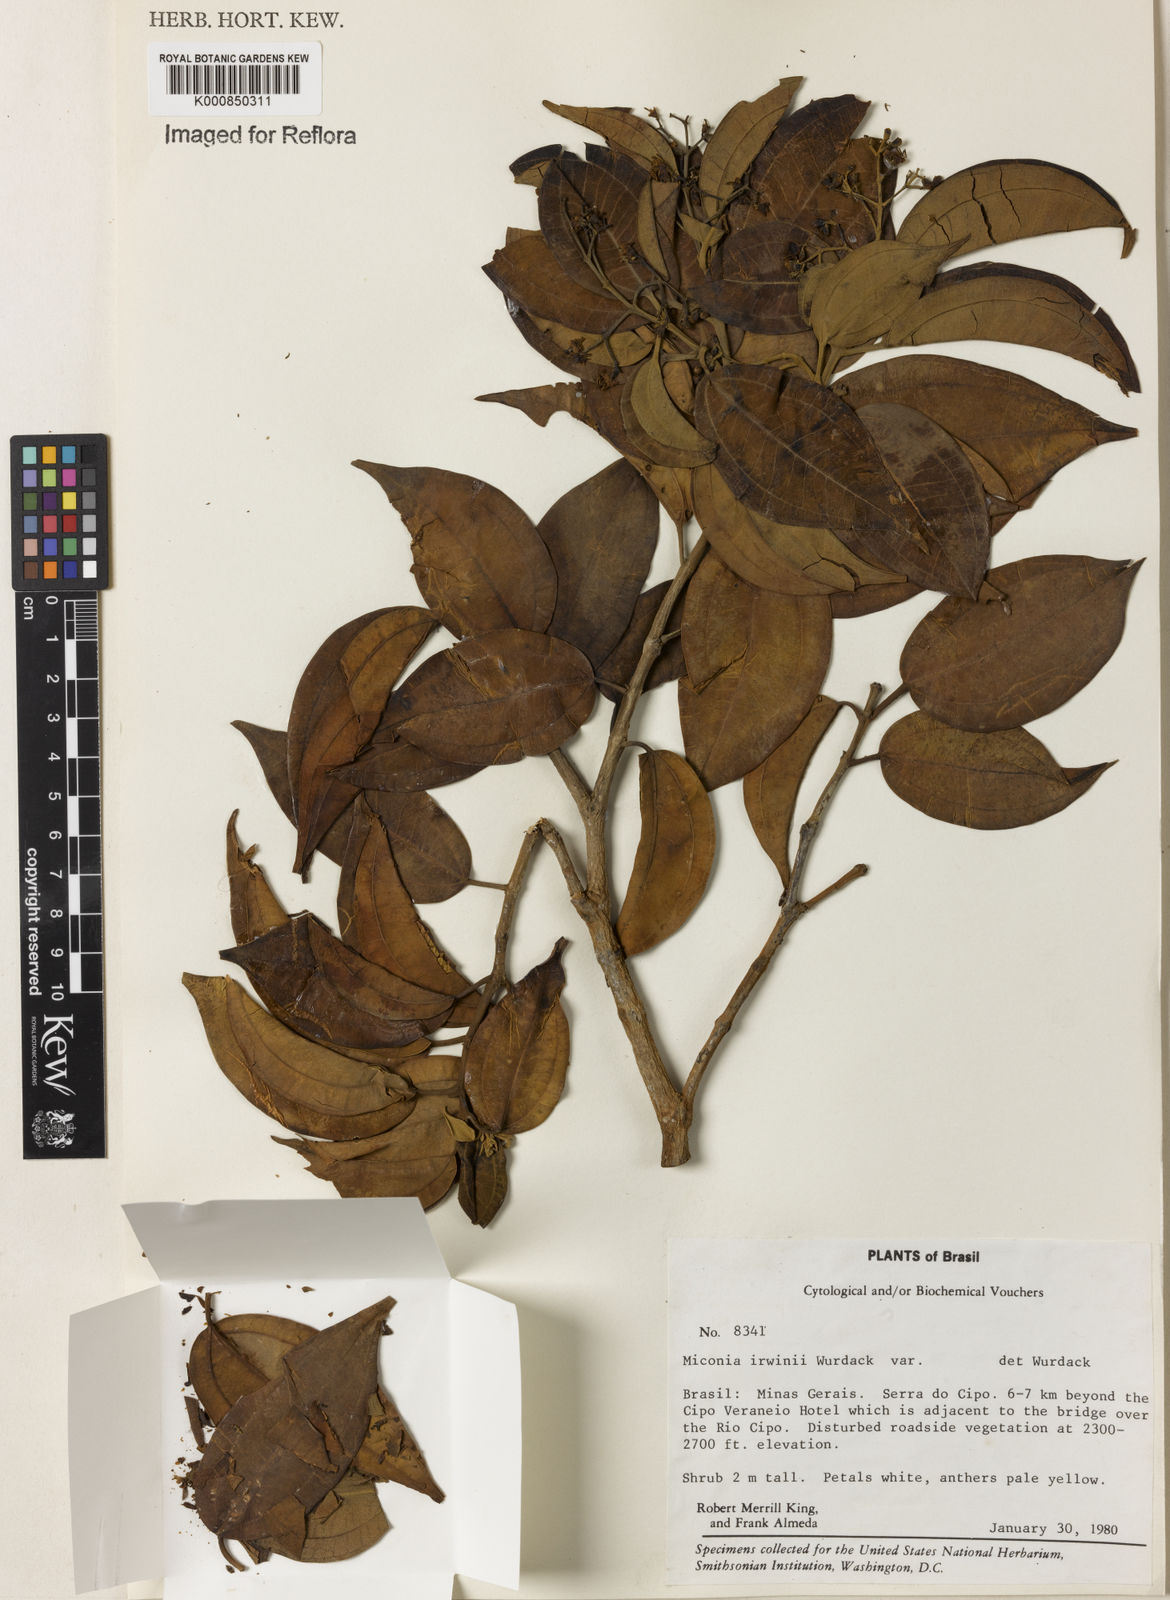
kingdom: Plantae
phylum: Tracheophyta
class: Magnoliopsida
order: Myrtales
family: Melastomataceae
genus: Miconia
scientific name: Miconia irwinii
